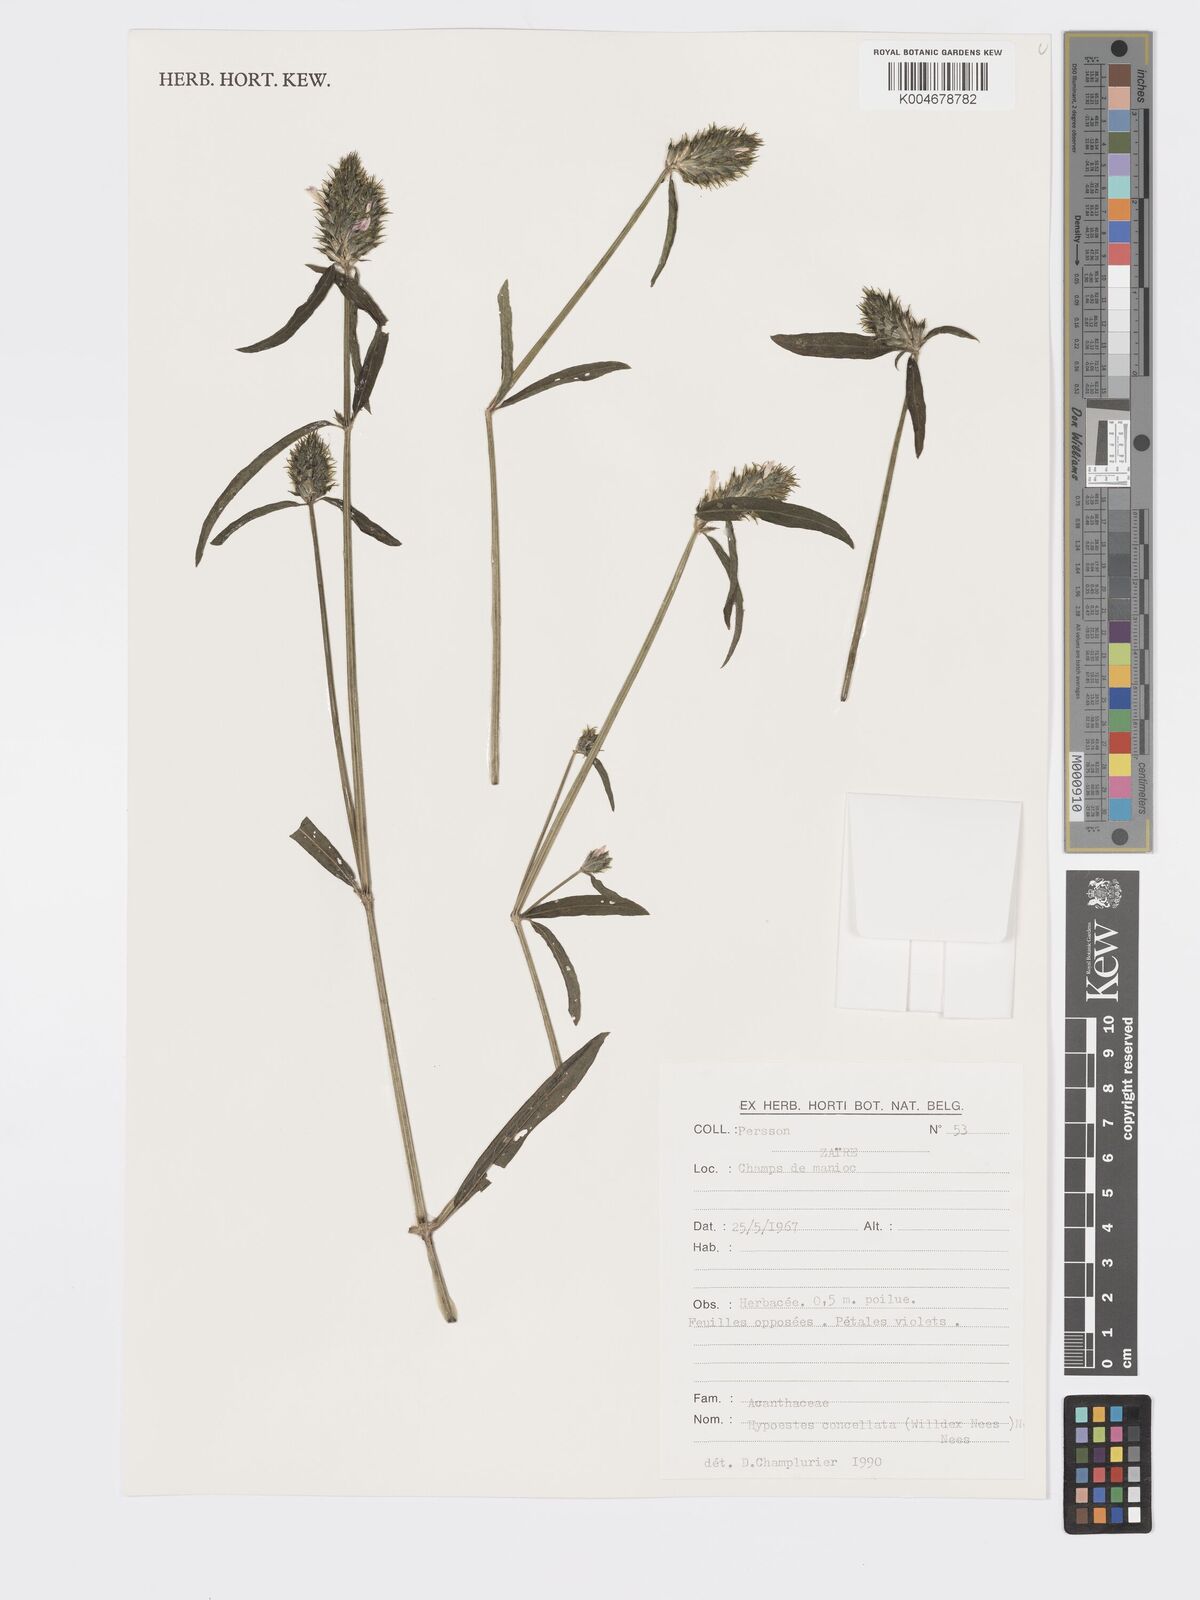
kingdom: Plantae
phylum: Tracheophyta
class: Magnoliopsida
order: Lamiales
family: Acanthaceae
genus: Hypoestes
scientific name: Hypoestes cancellata
